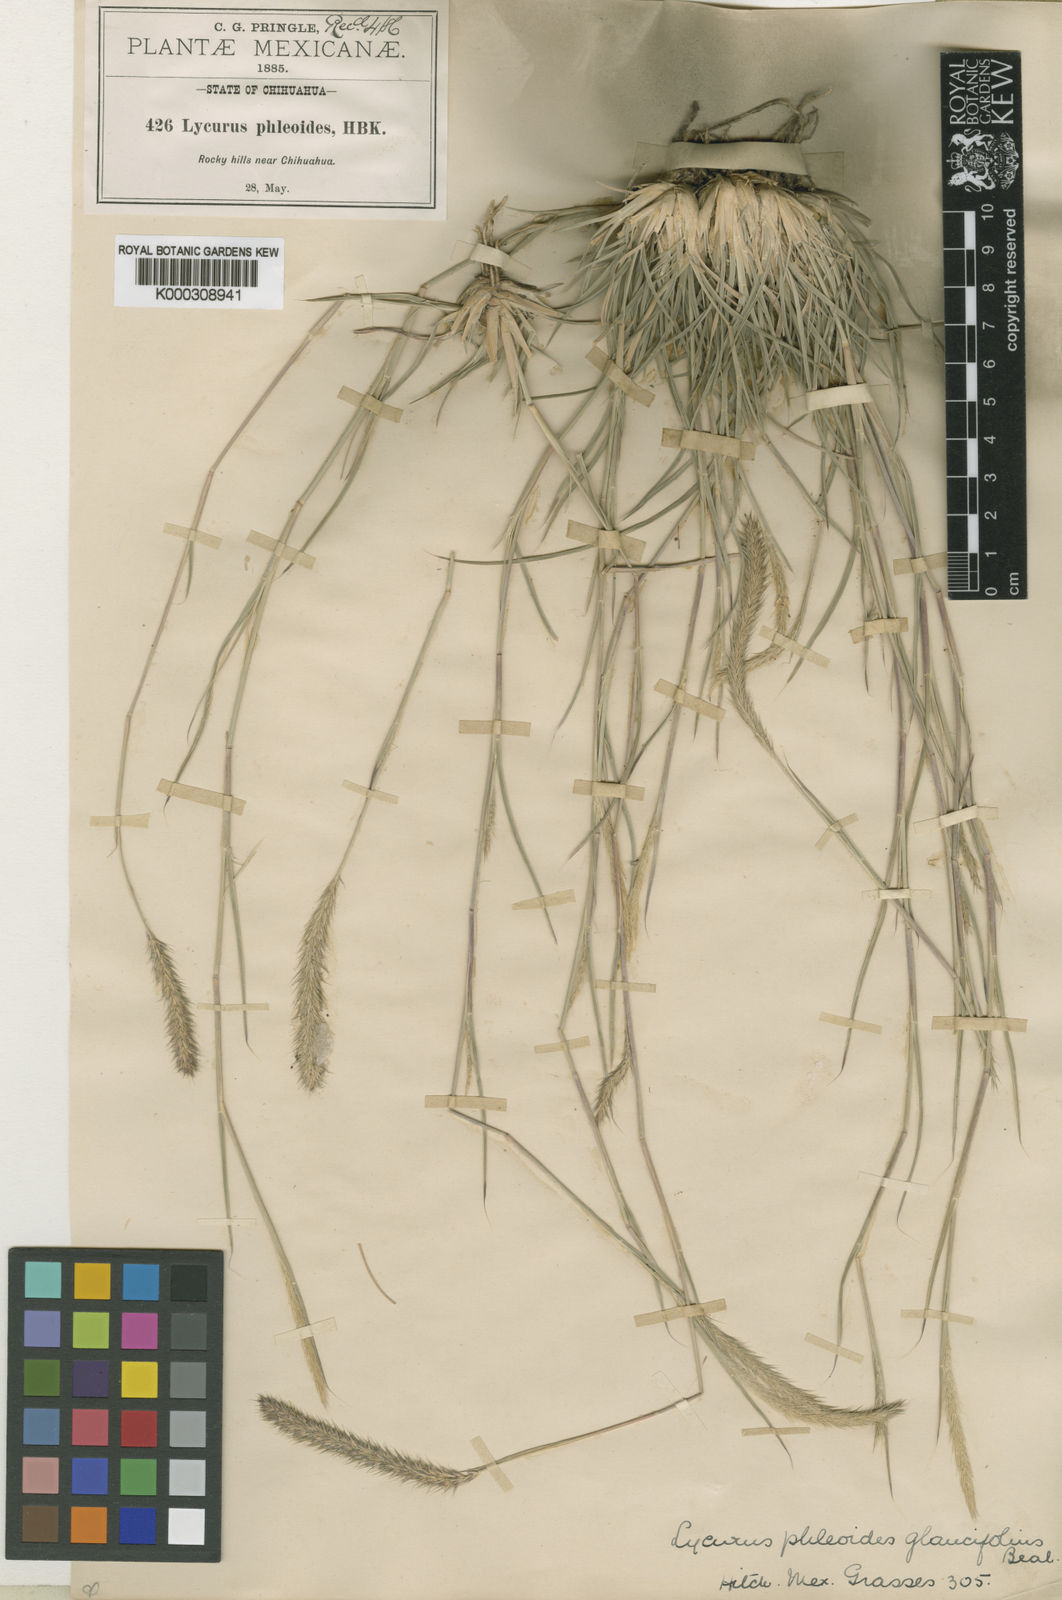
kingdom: Plantae
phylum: Tracheophyta
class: Liliopsida
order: Poales
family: Poaceae
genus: Muhlenbergia
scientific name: Muhlenbergia alopecuroides
